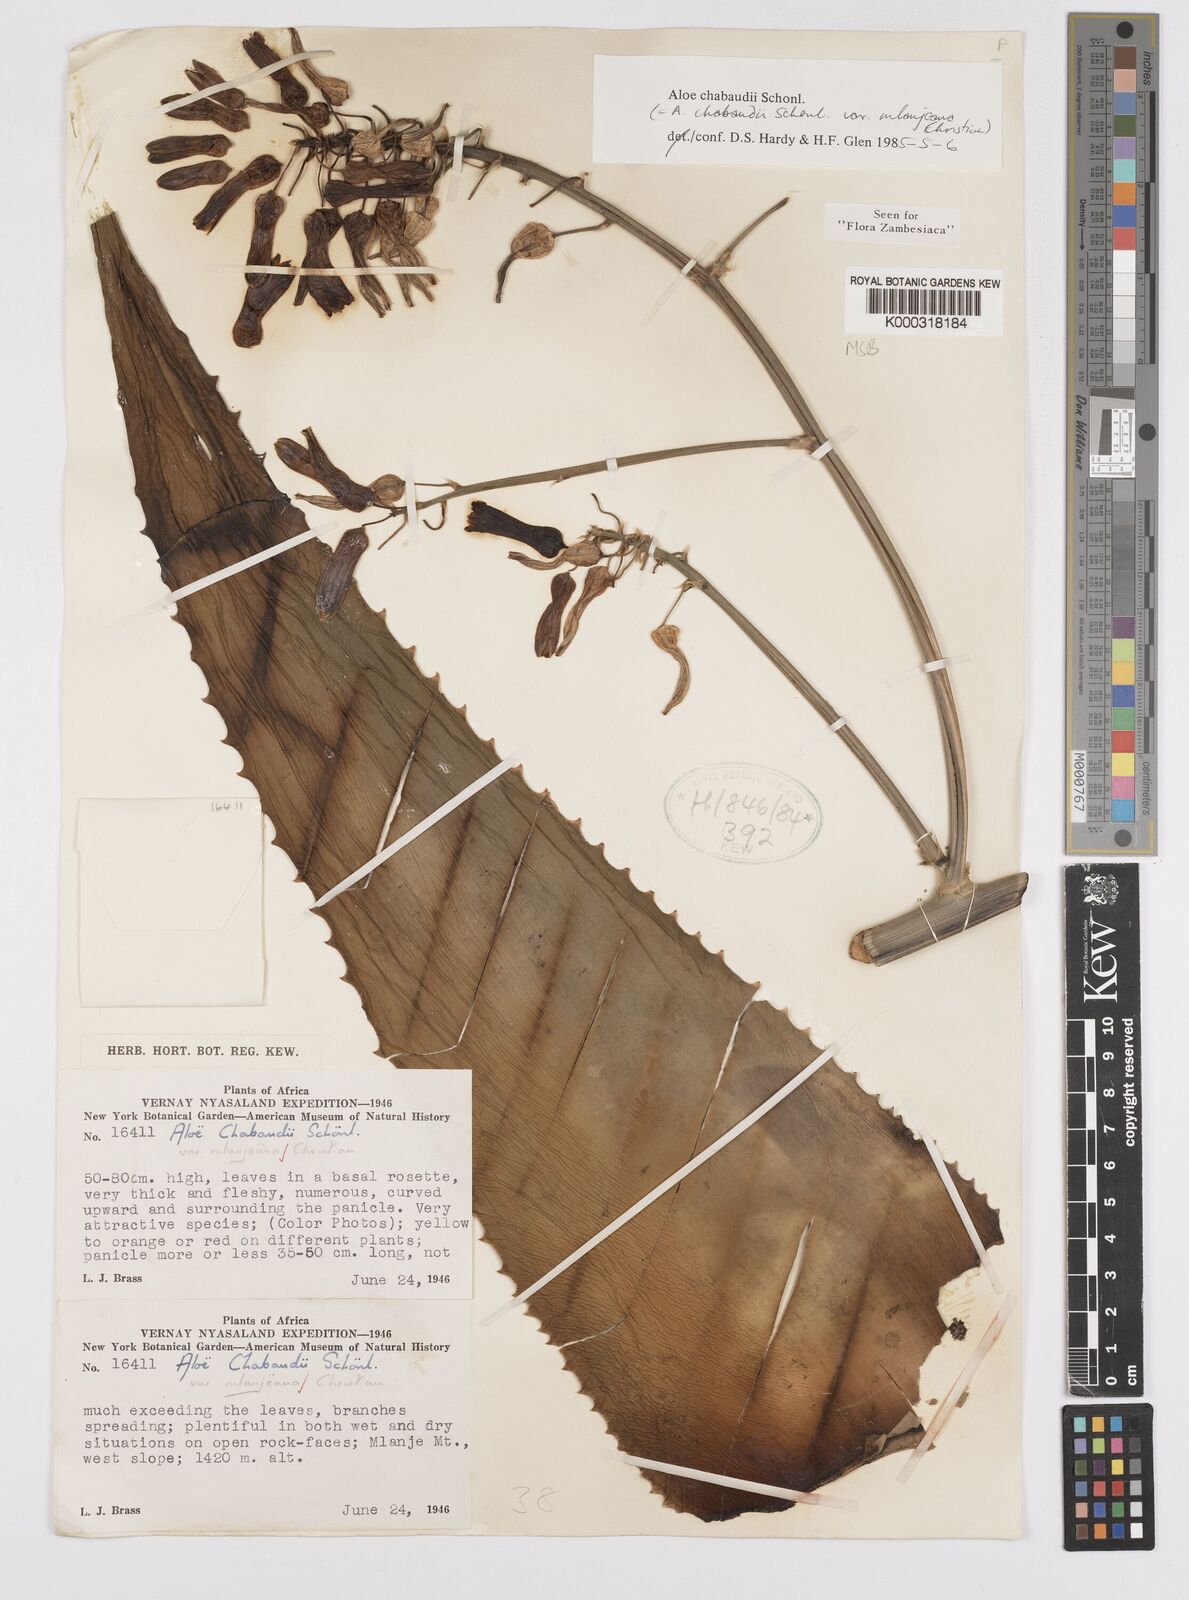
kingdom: Plantae
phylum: Tracheophyta
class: Liliopsida
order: Asparagales
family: Asphodelaceae
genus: Aloe
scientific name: Aloe chabaudii
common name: Chabaud's aloe
